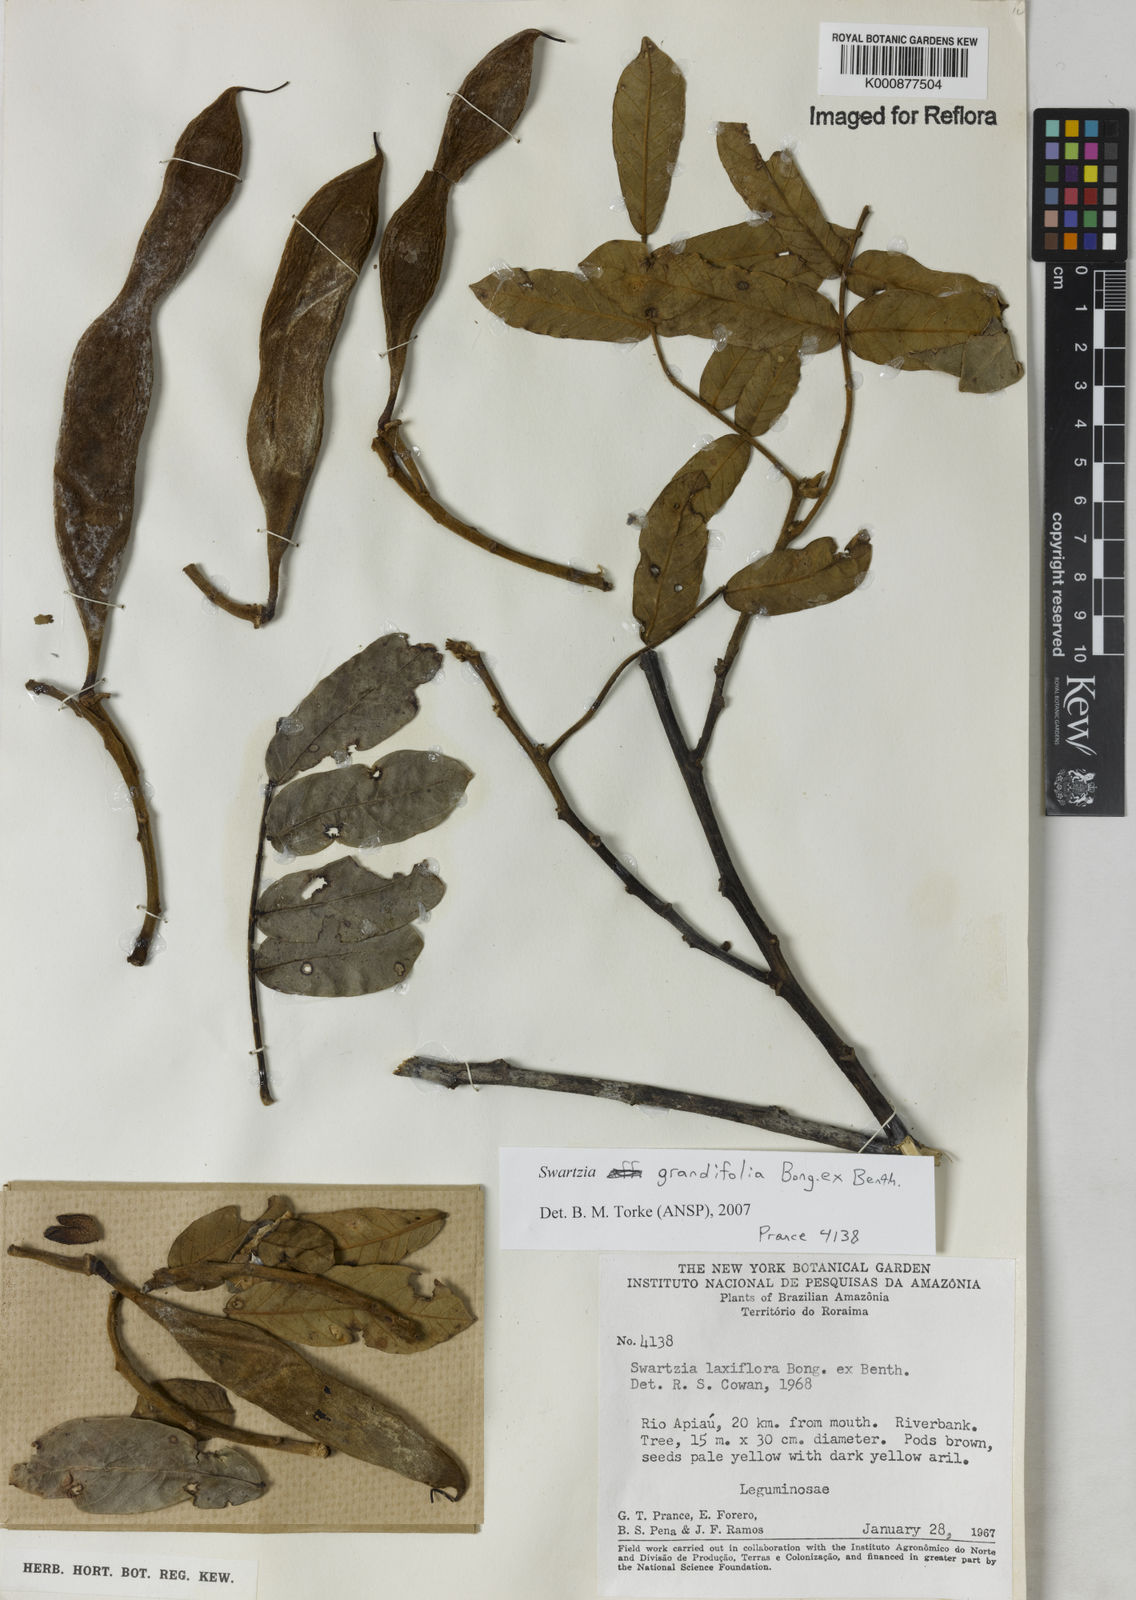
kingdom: Plantae
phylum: Tracheophyta
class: Magnoliopsida
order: Fabales
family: Fabaceae
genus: Swartzia
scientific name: Swartzia grandifolia
